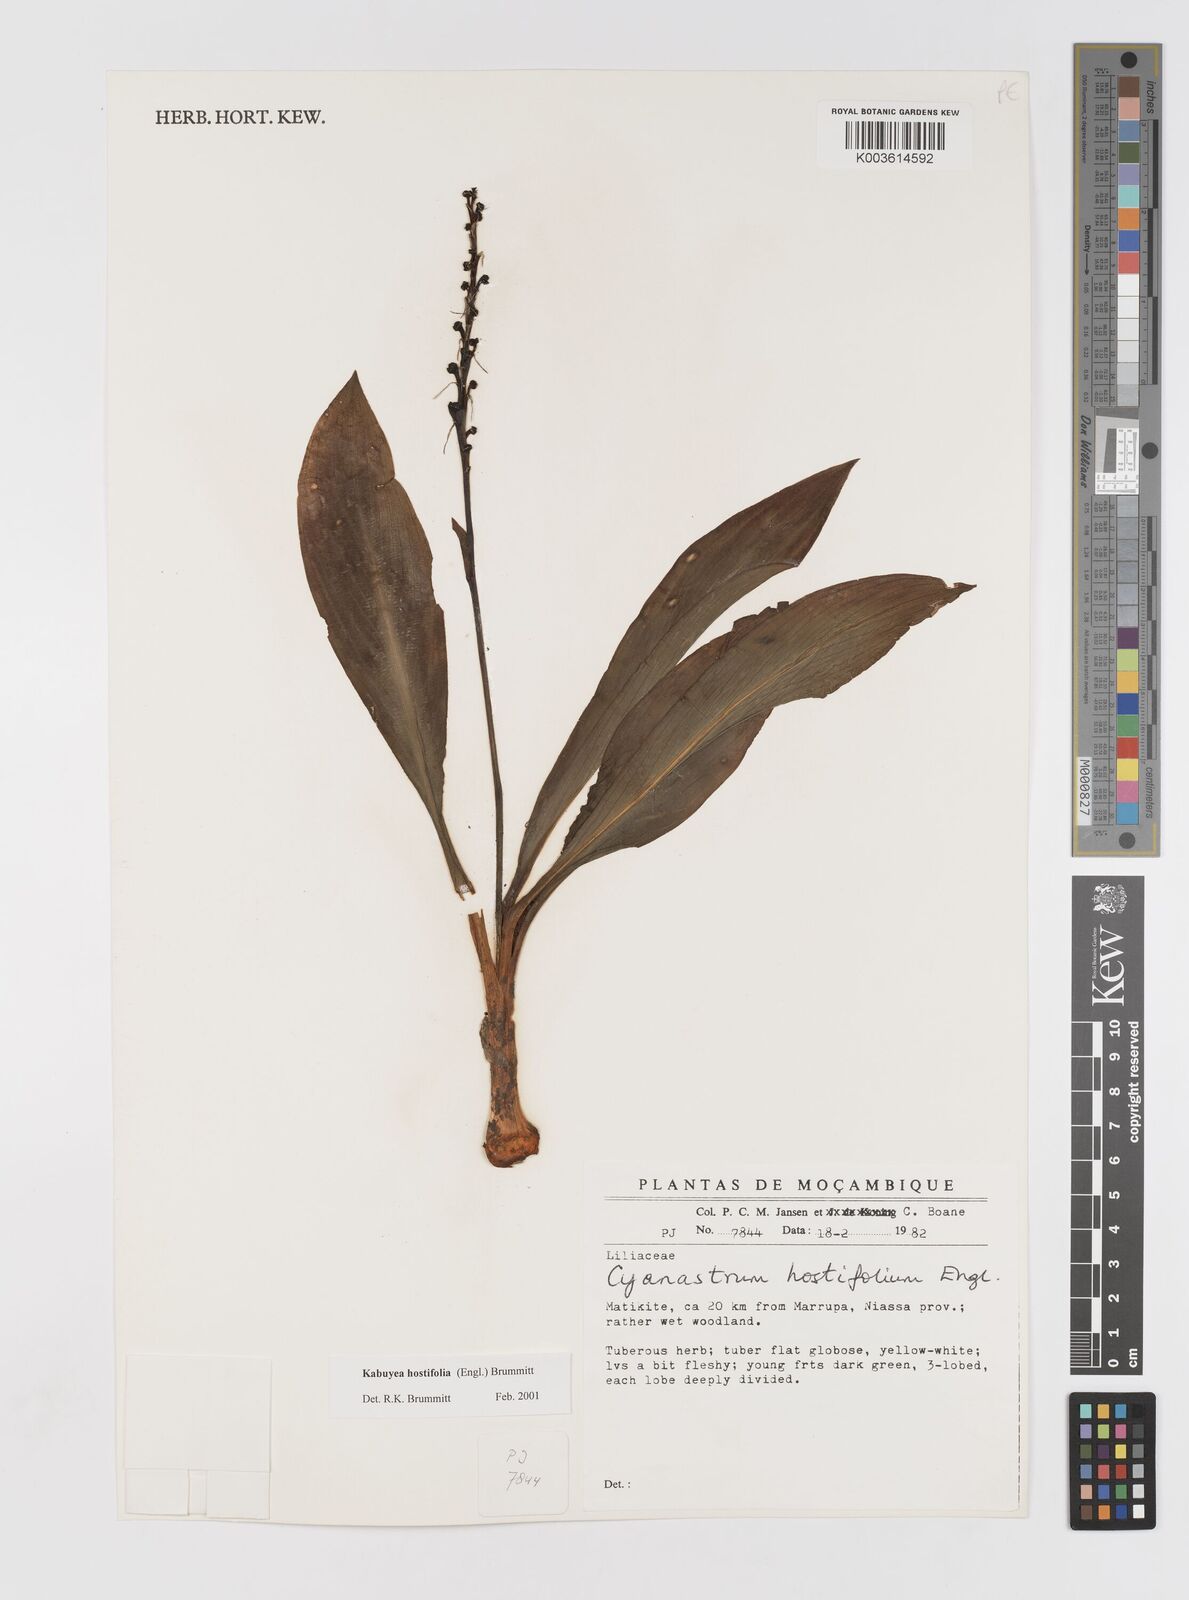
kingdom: Plantae
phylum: Tracheophyta
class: Liliopsida
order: Asparagales
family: Tecophilaeaceae
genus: Kabuyea
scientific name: Kabuyea hostifolia
